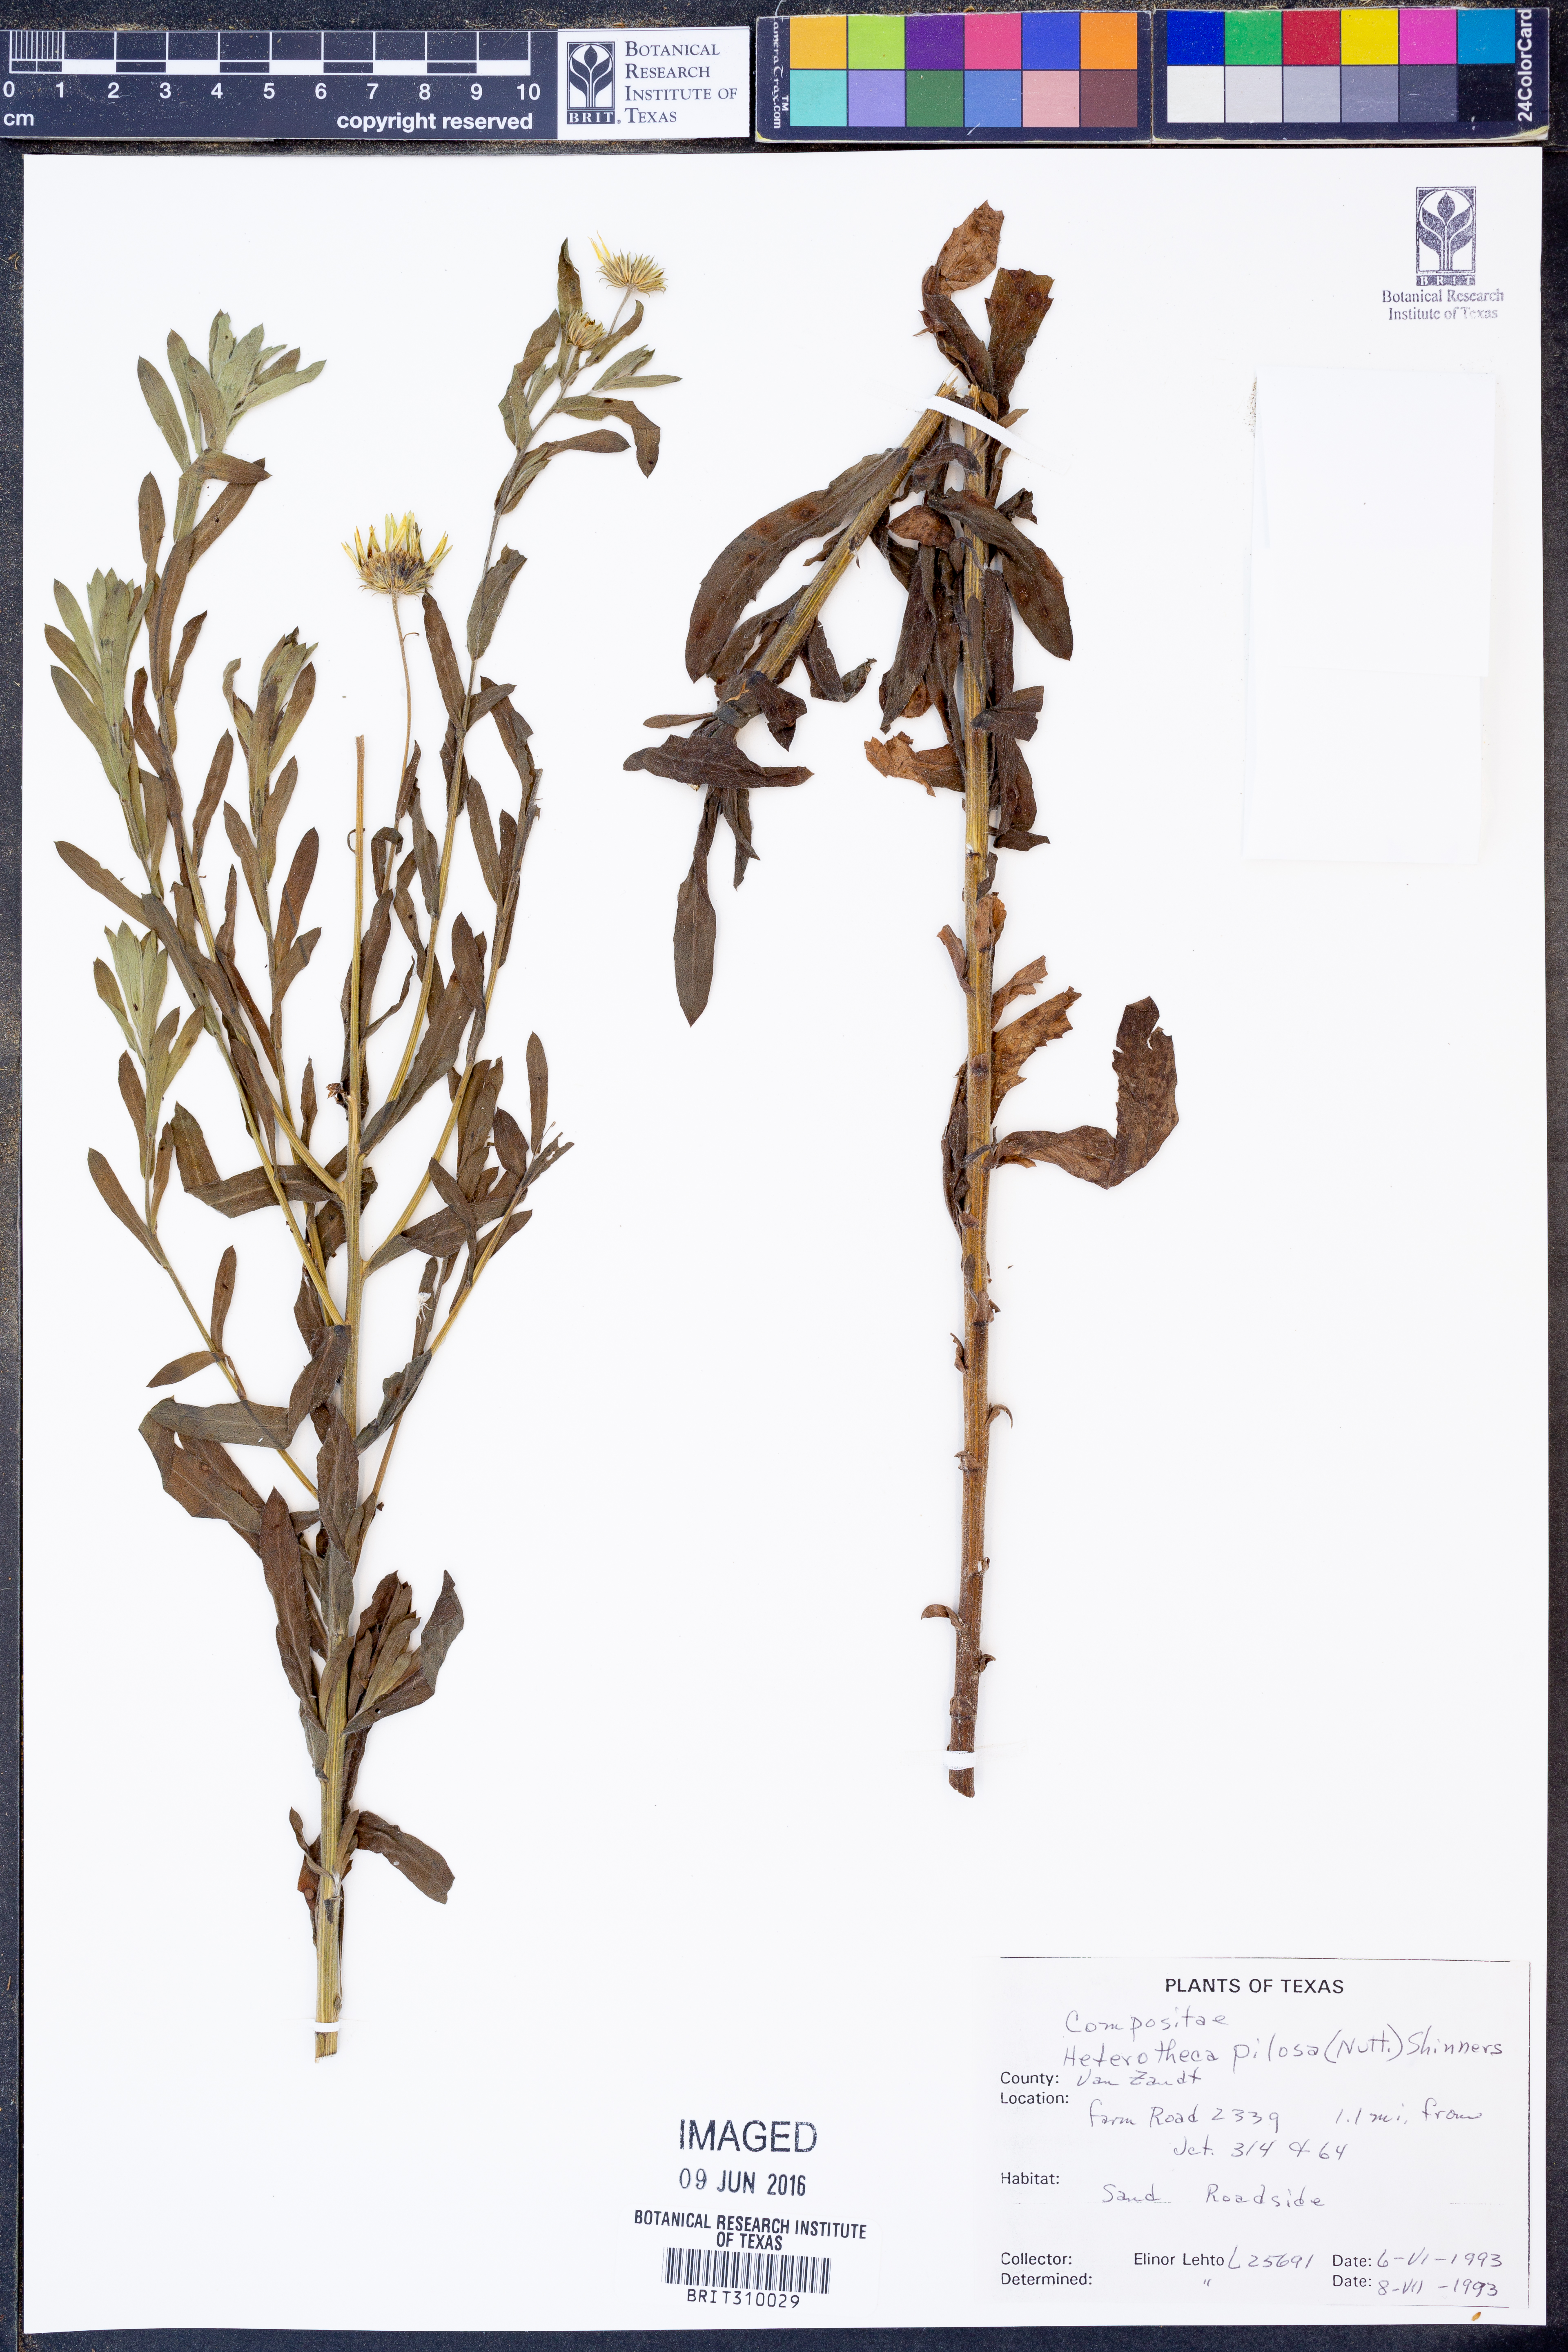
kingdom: Plantae
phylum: Tracheophyta
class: Magnoliopsida
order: Asterales
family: Asteraceae
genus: Bradburia
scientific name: Bradburia pilosa
